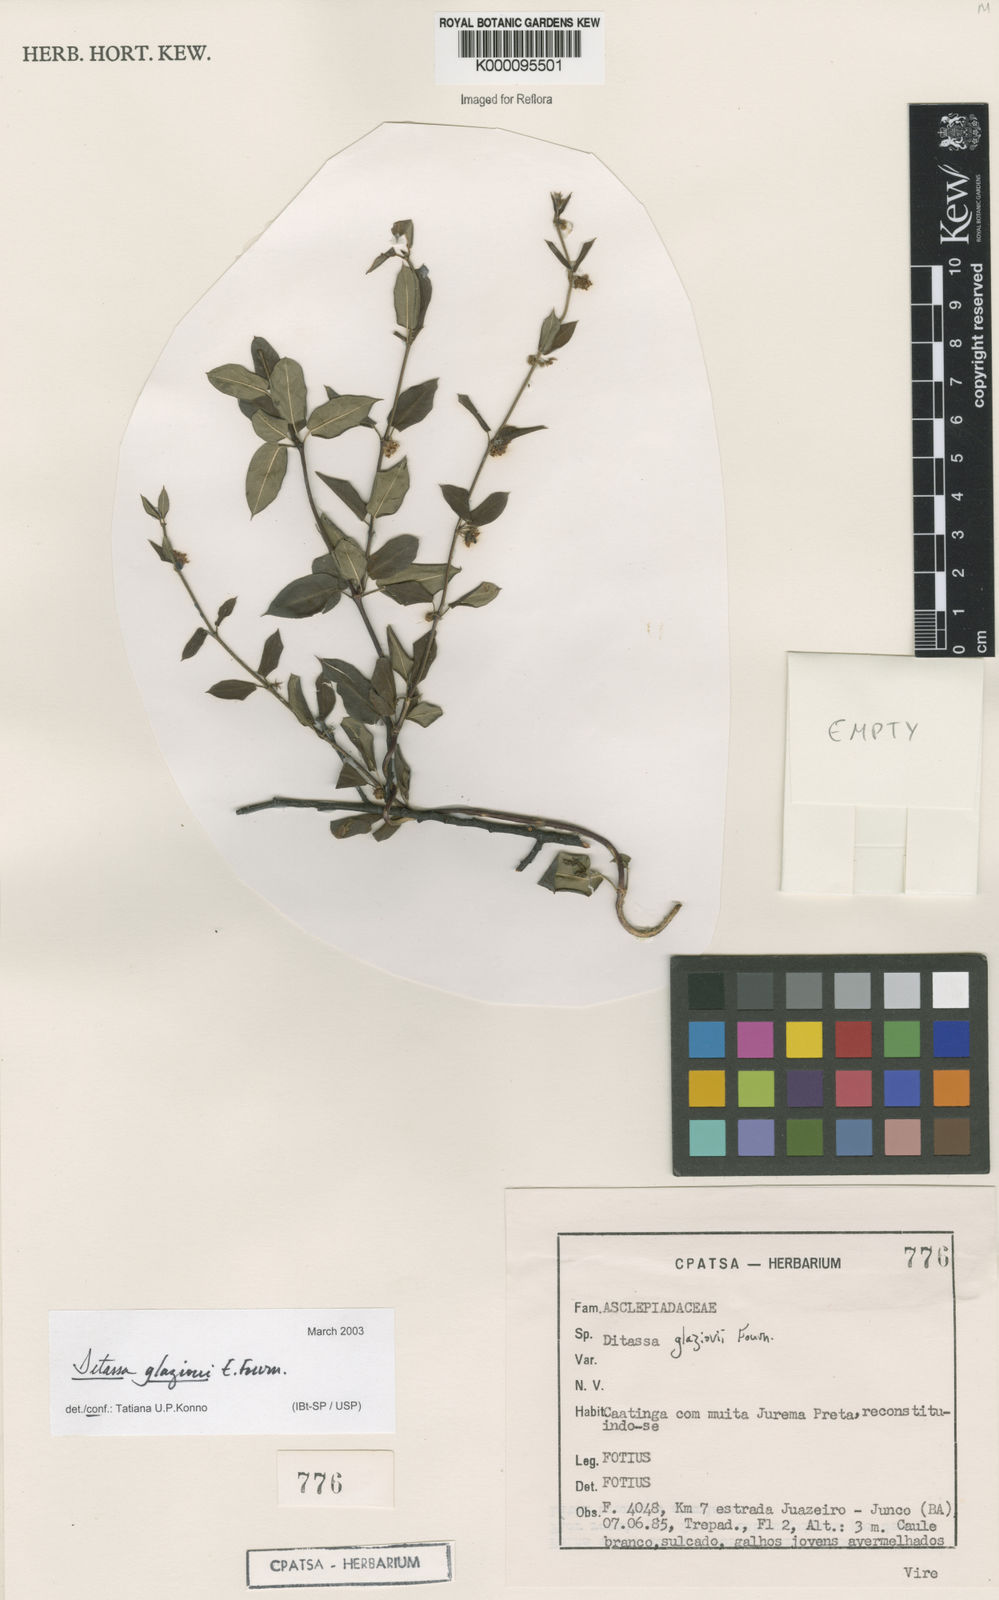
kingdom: Plantae
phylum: Tracheophyta
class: Magnoliopsida
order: Gentianales
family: Apocynaceae
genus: Ditassa
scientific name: Ditassa
